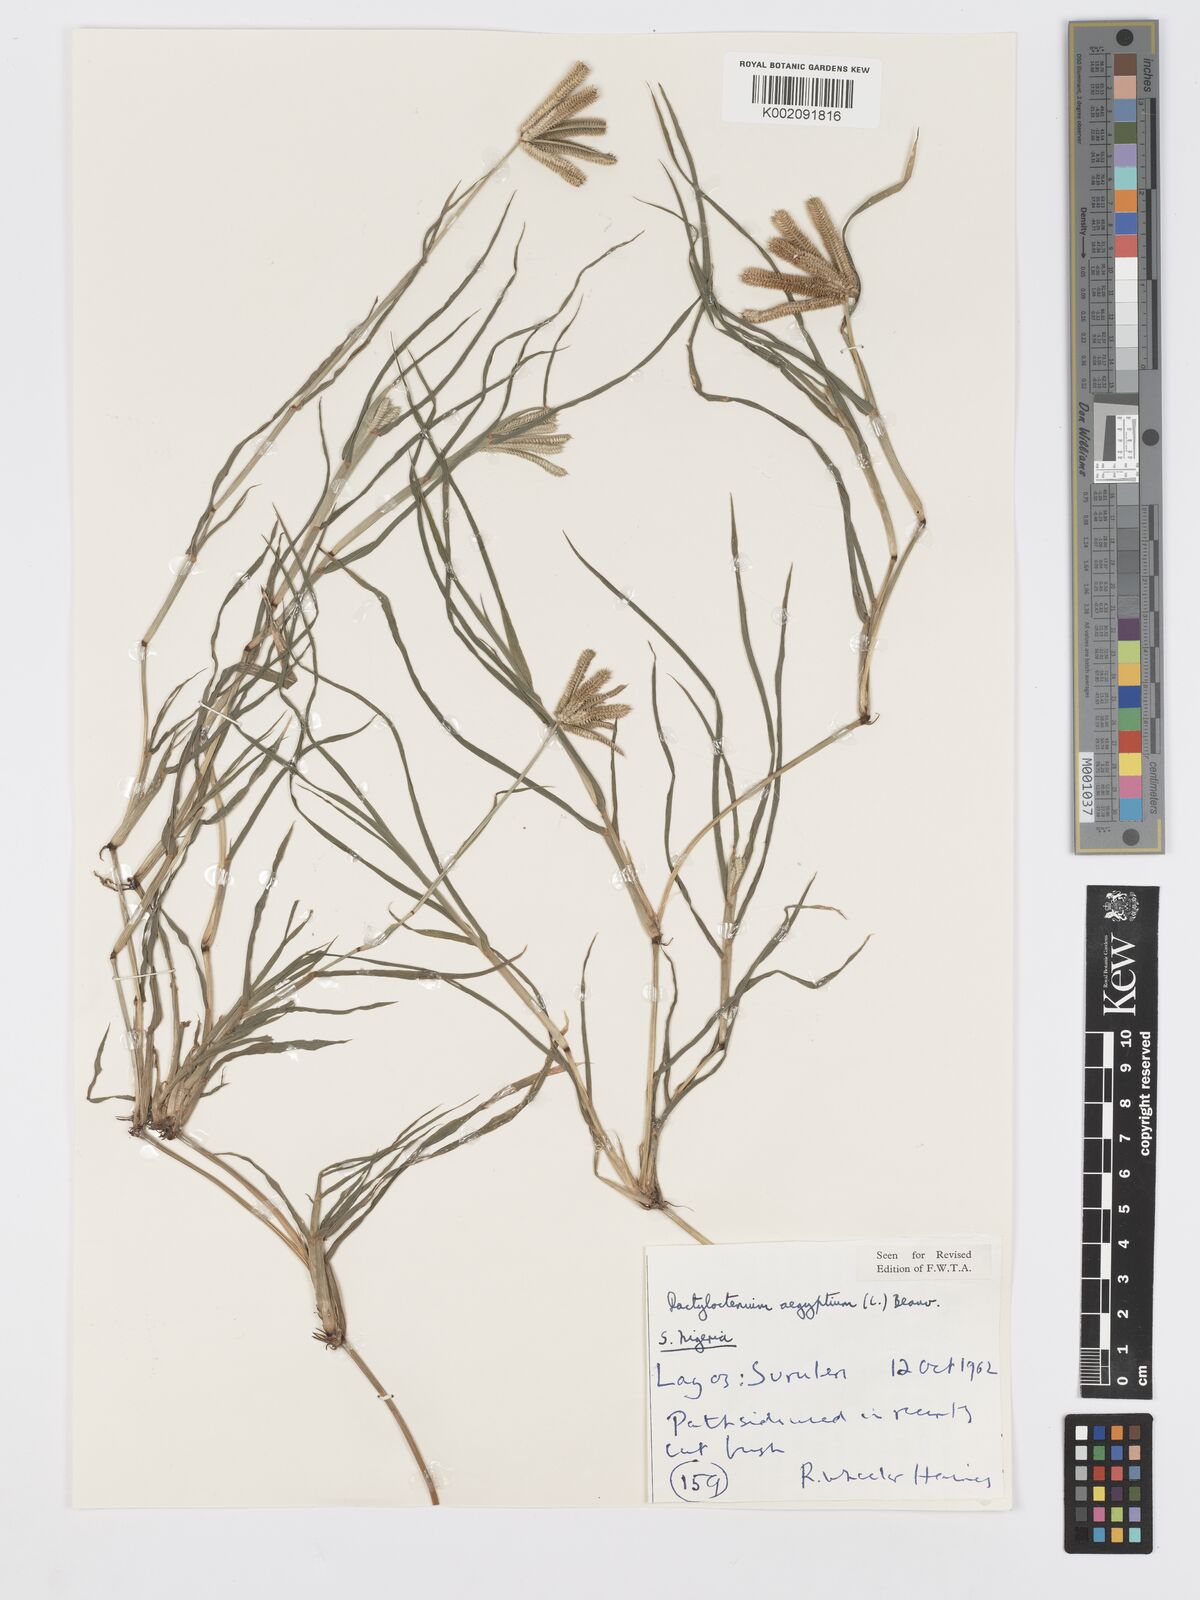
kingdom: Plantae
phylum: Tracheophyta
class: Liliopsida
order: Poales
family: Poaceae
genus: Dactyloctenium
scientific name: Dactyloctenium aegyptium
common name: Egyptian grass
